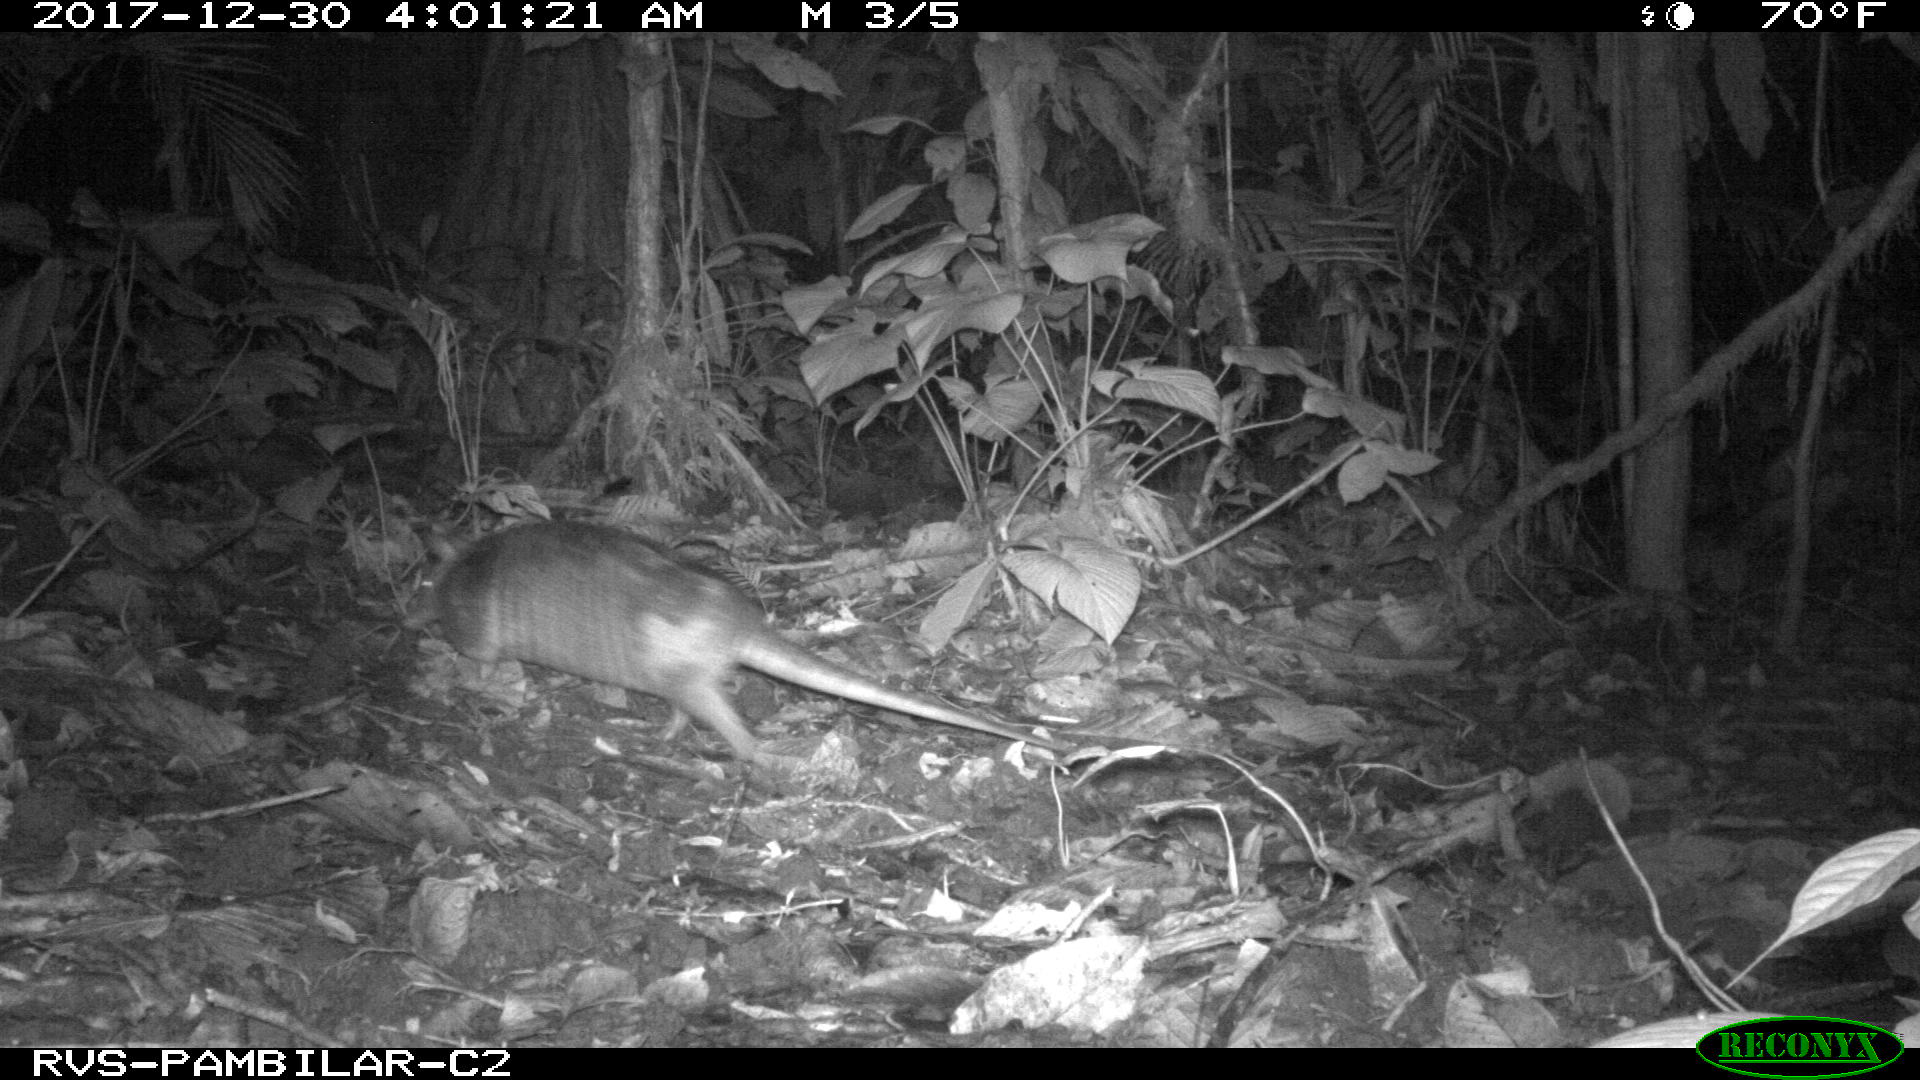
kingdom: Animalia
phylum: Chordata
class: Mammalia
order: Cingulata
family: Dasypodidae
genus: Dasypus
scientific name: Dasypus novemcinctus
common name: Nine-banded armadillo
